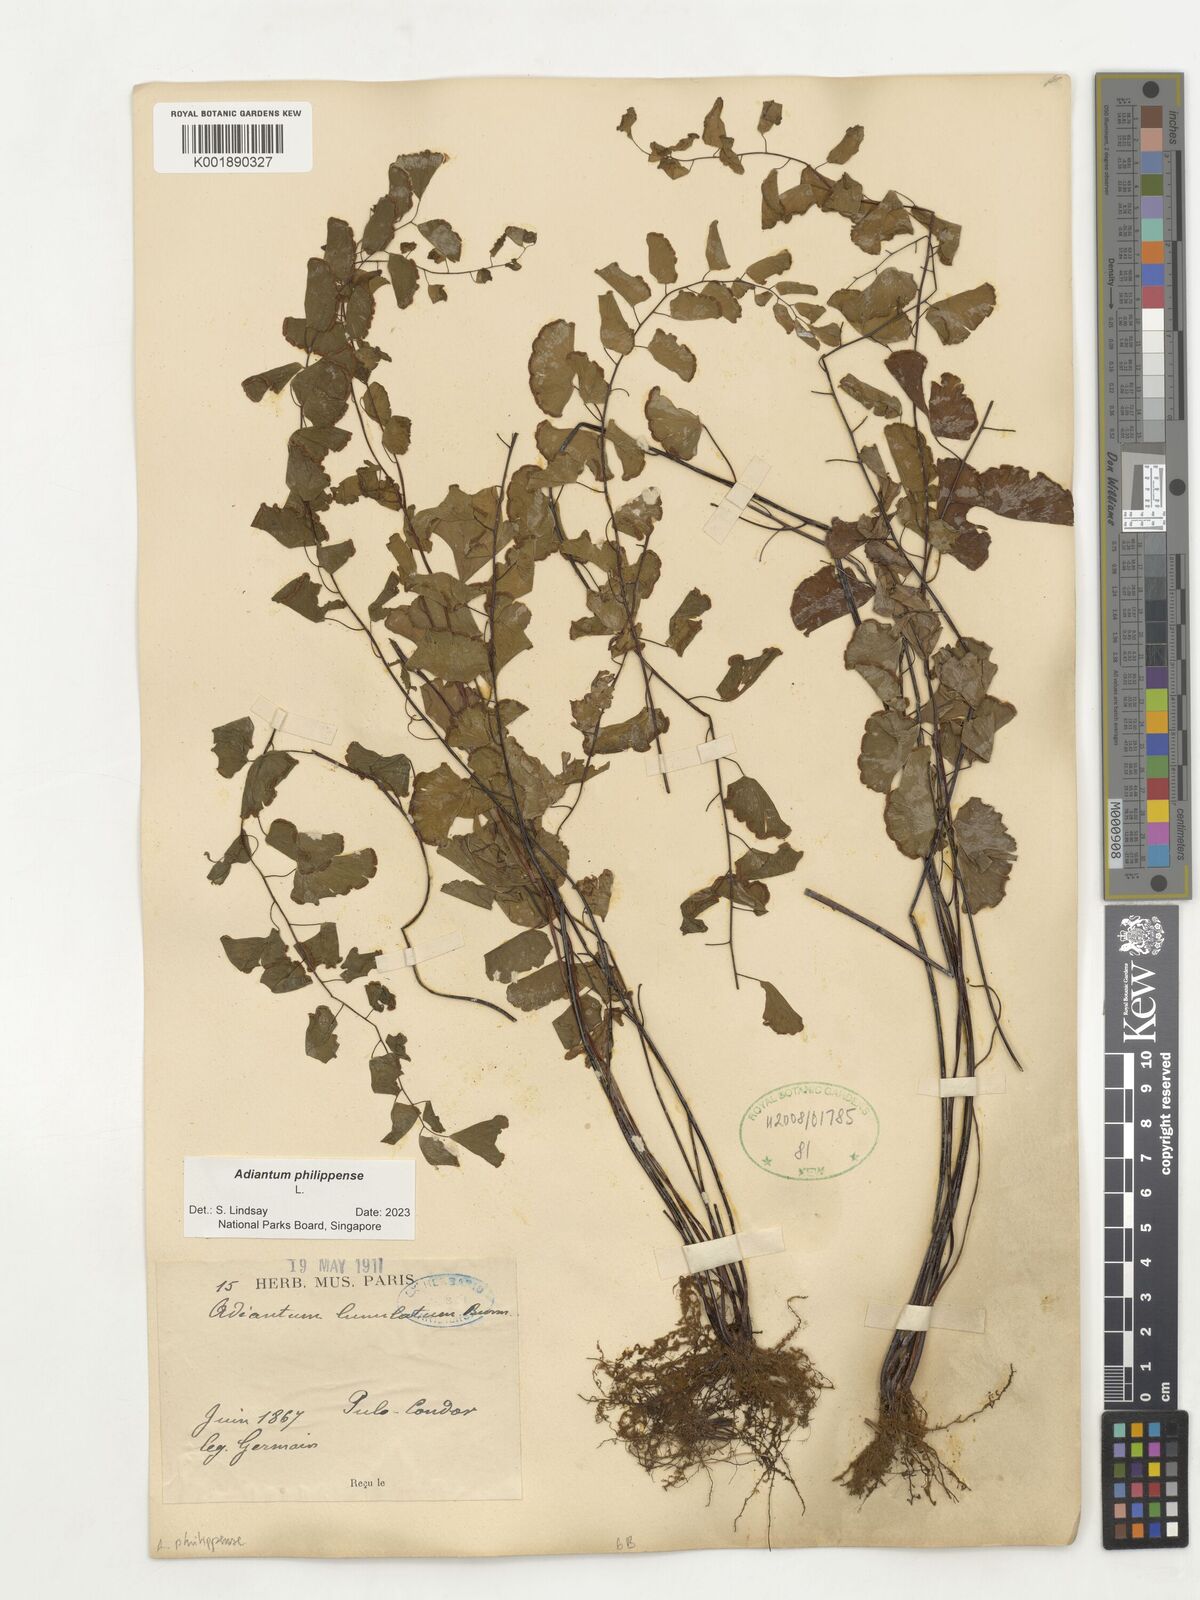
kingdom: Plantae
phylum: Tracheophyta
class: Polypodiopsida
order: Polypodiales
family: Pteridaceae
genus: Adiantum
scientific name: Adiantum philippense
